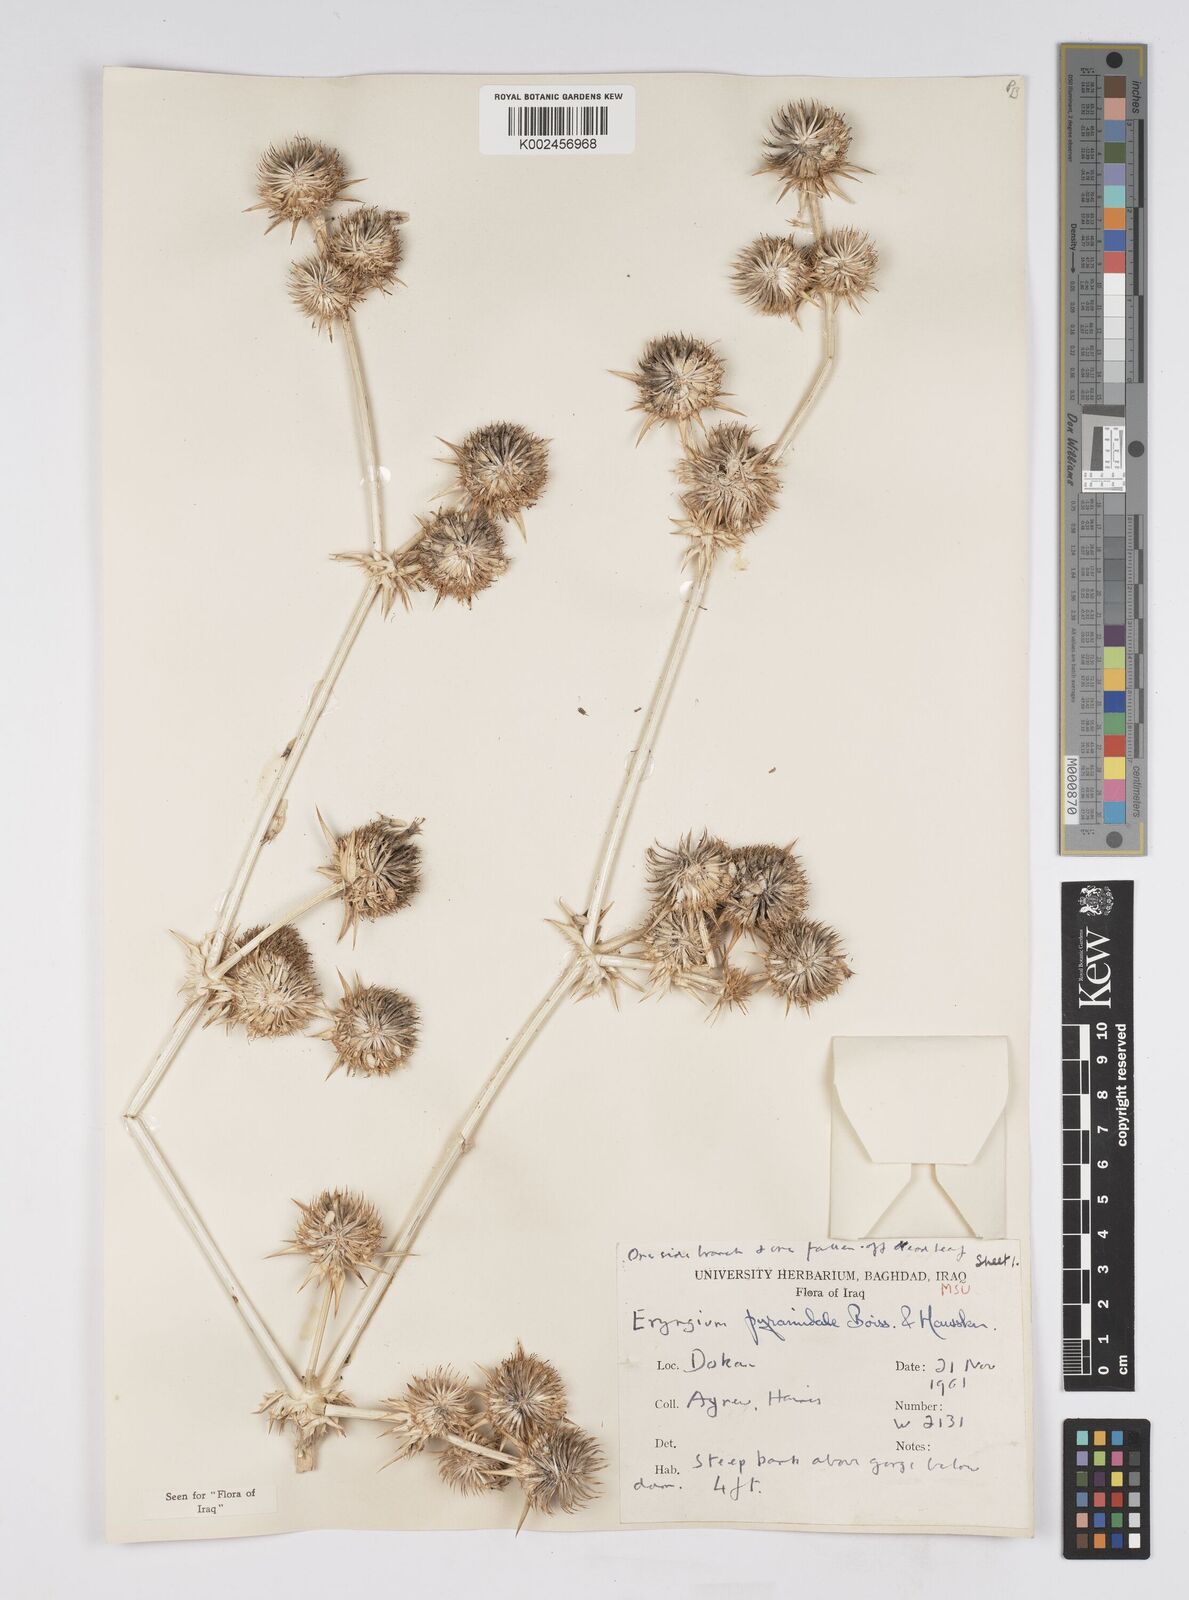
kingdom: Plantae
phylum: Tracheophyta
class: Magnoliopsida
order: Apiales
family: Apiaceae
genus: Eryngium
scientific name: Eryngium pyramidale
